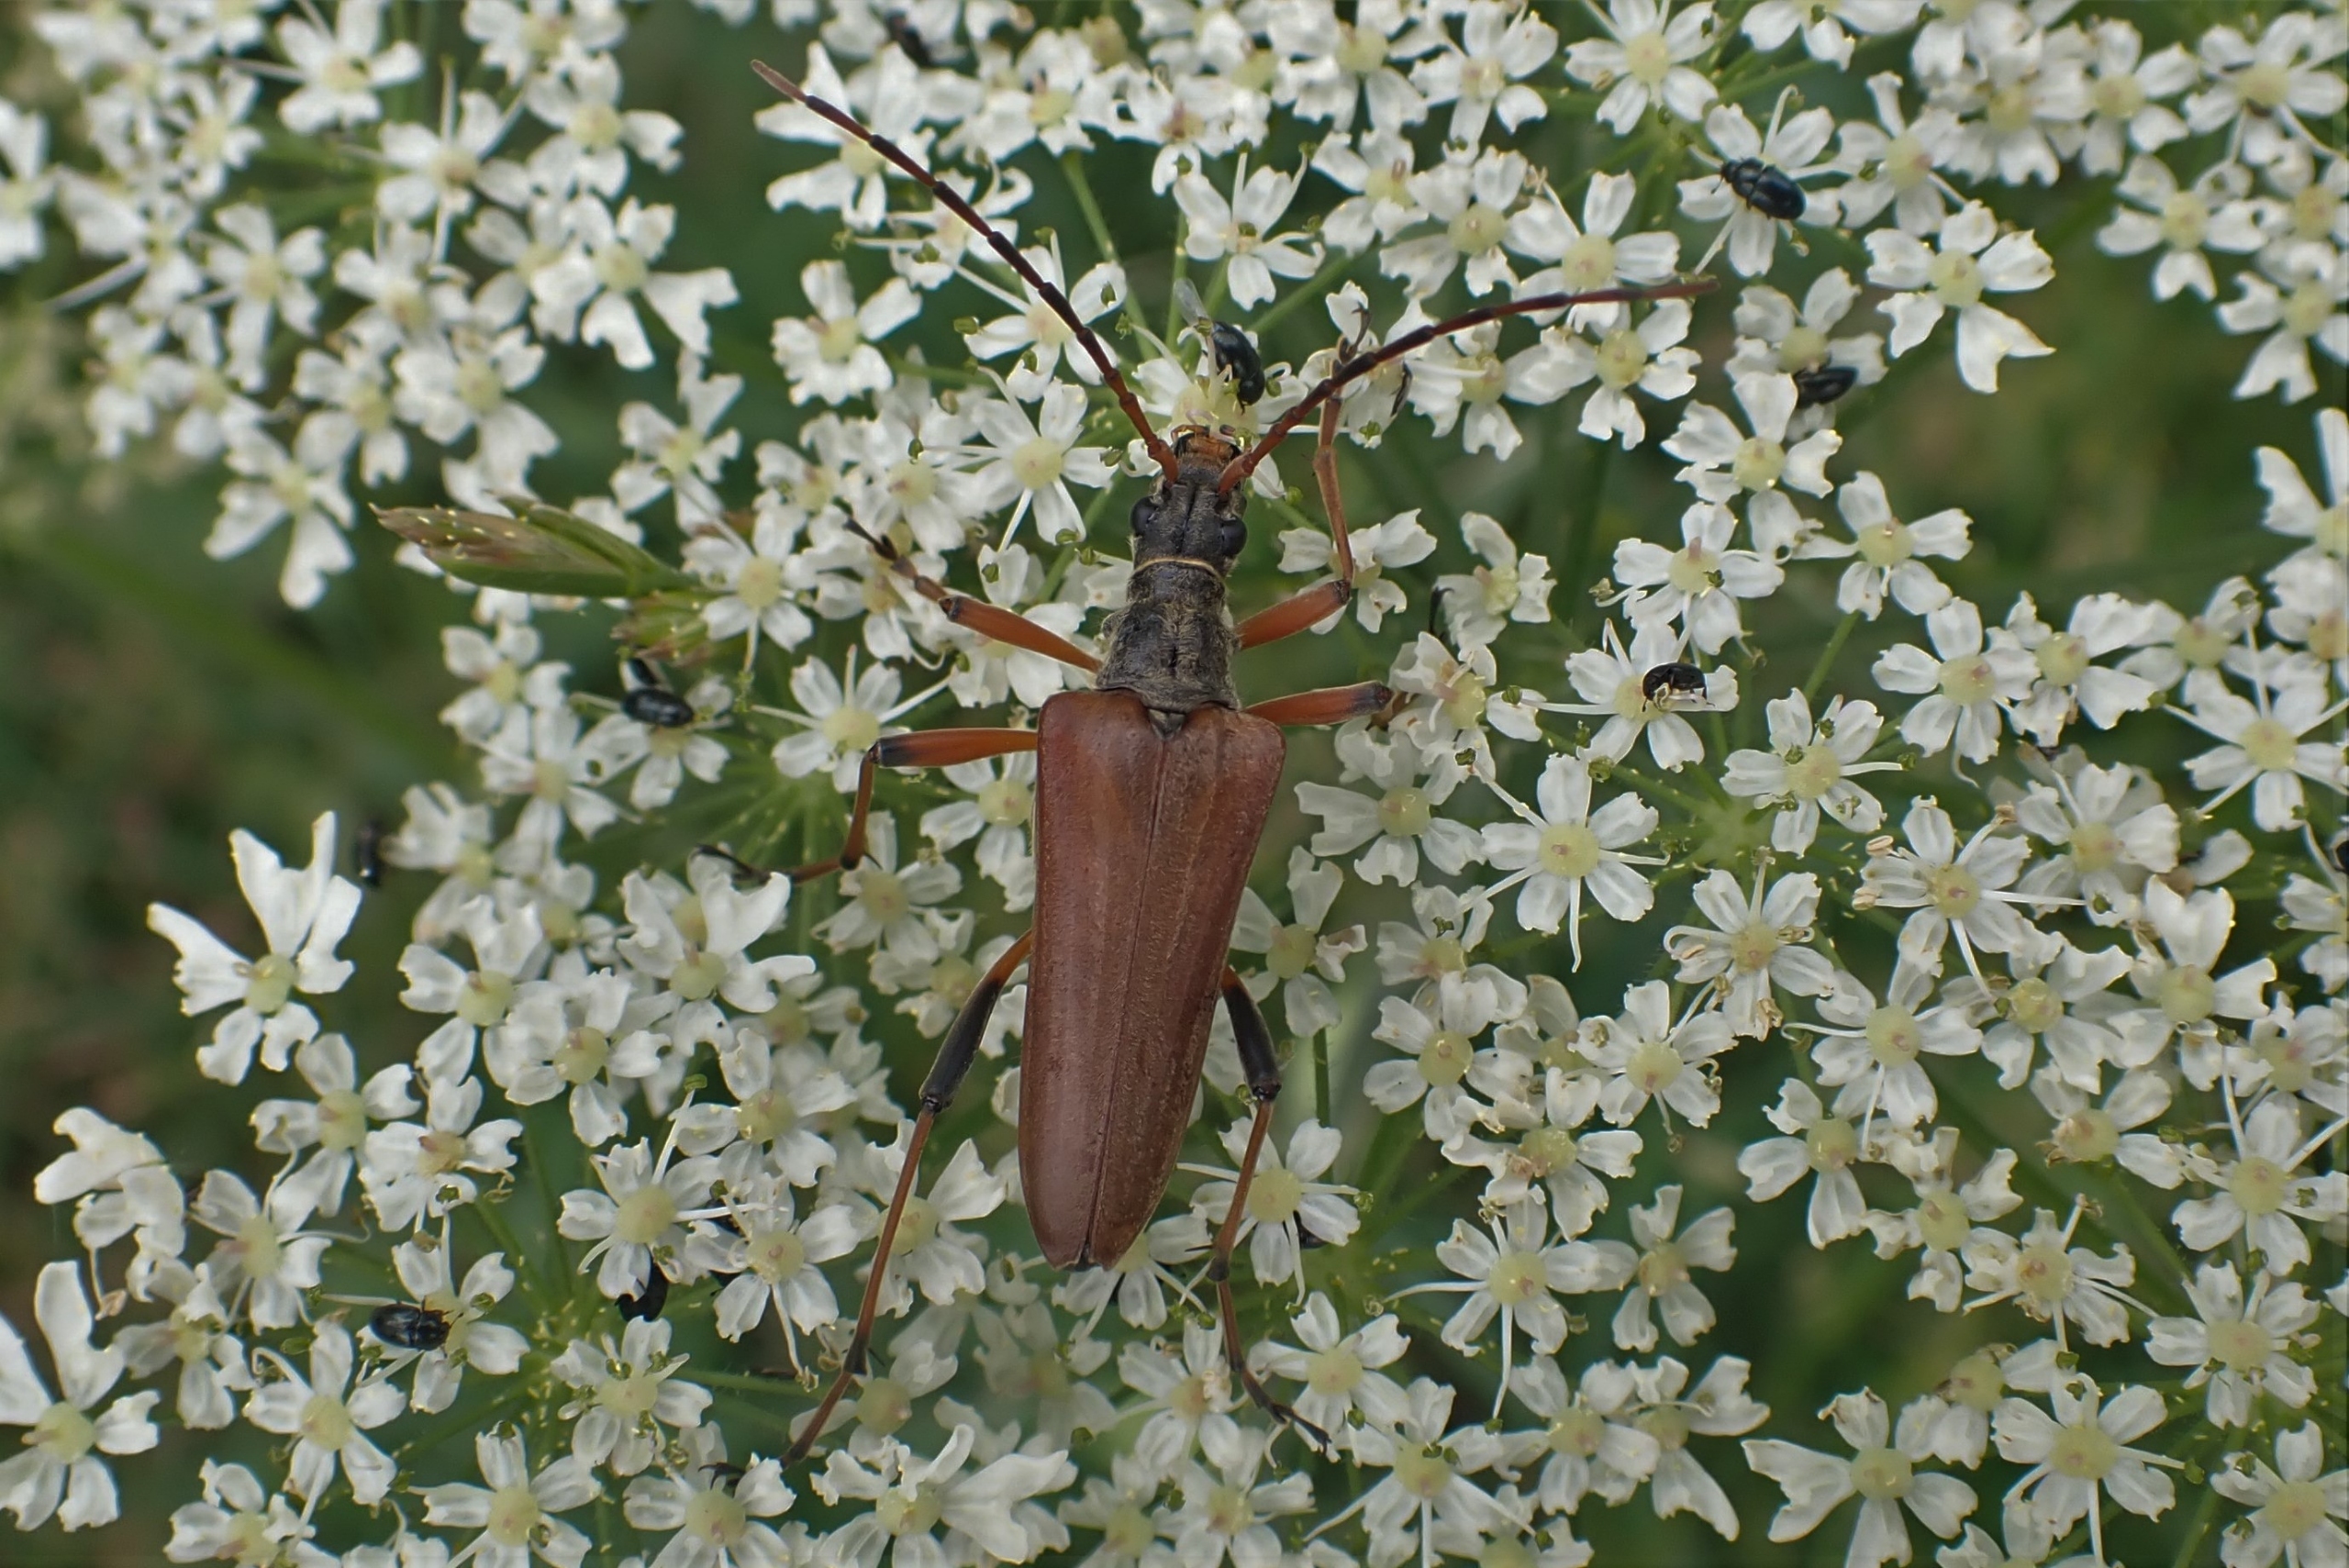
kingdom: Animalia
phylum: Arthropoda
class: Insecta
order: Coleoptera
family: Cerambycidae
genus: Stenocorus
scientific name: Stenocorus meridianus
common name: Smalbuk
